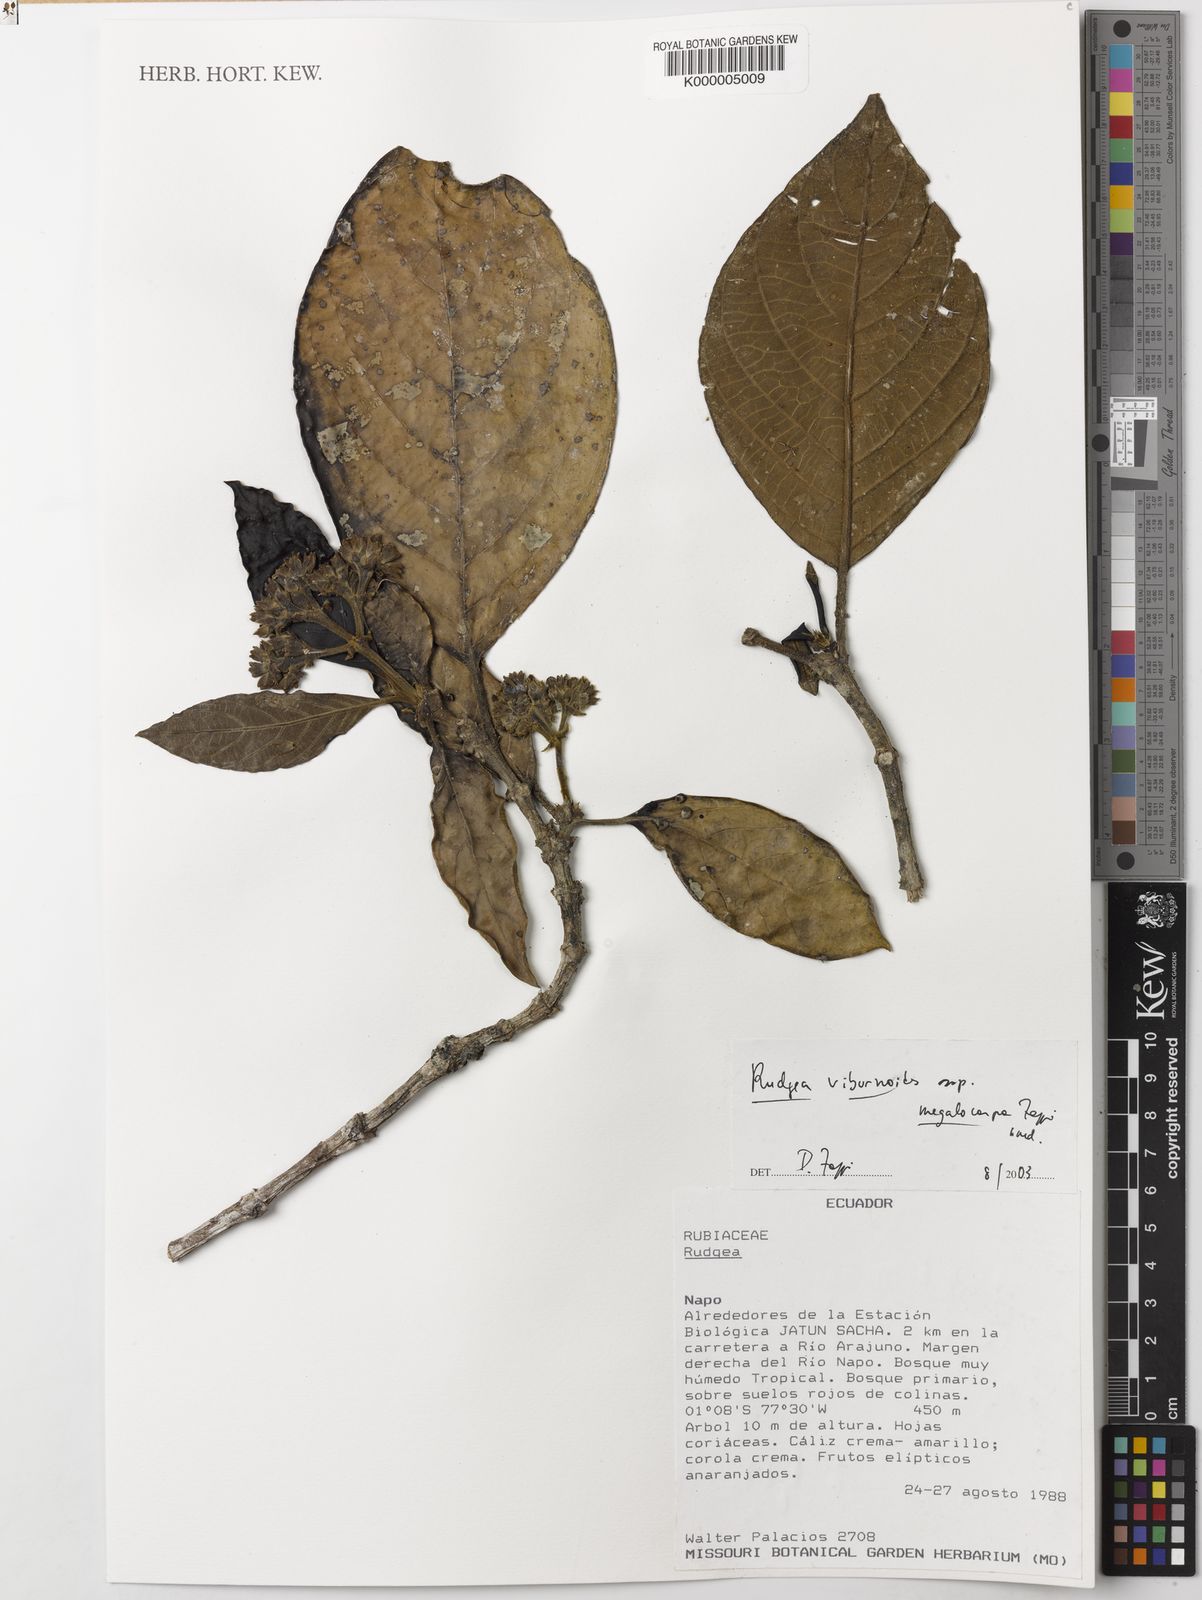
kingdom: Plantae
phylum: Tracheophyta
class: Magnoliopsida
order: Gentianales
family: Rubiaceae
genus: Rudgea
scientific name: Rudgea viburnoides
